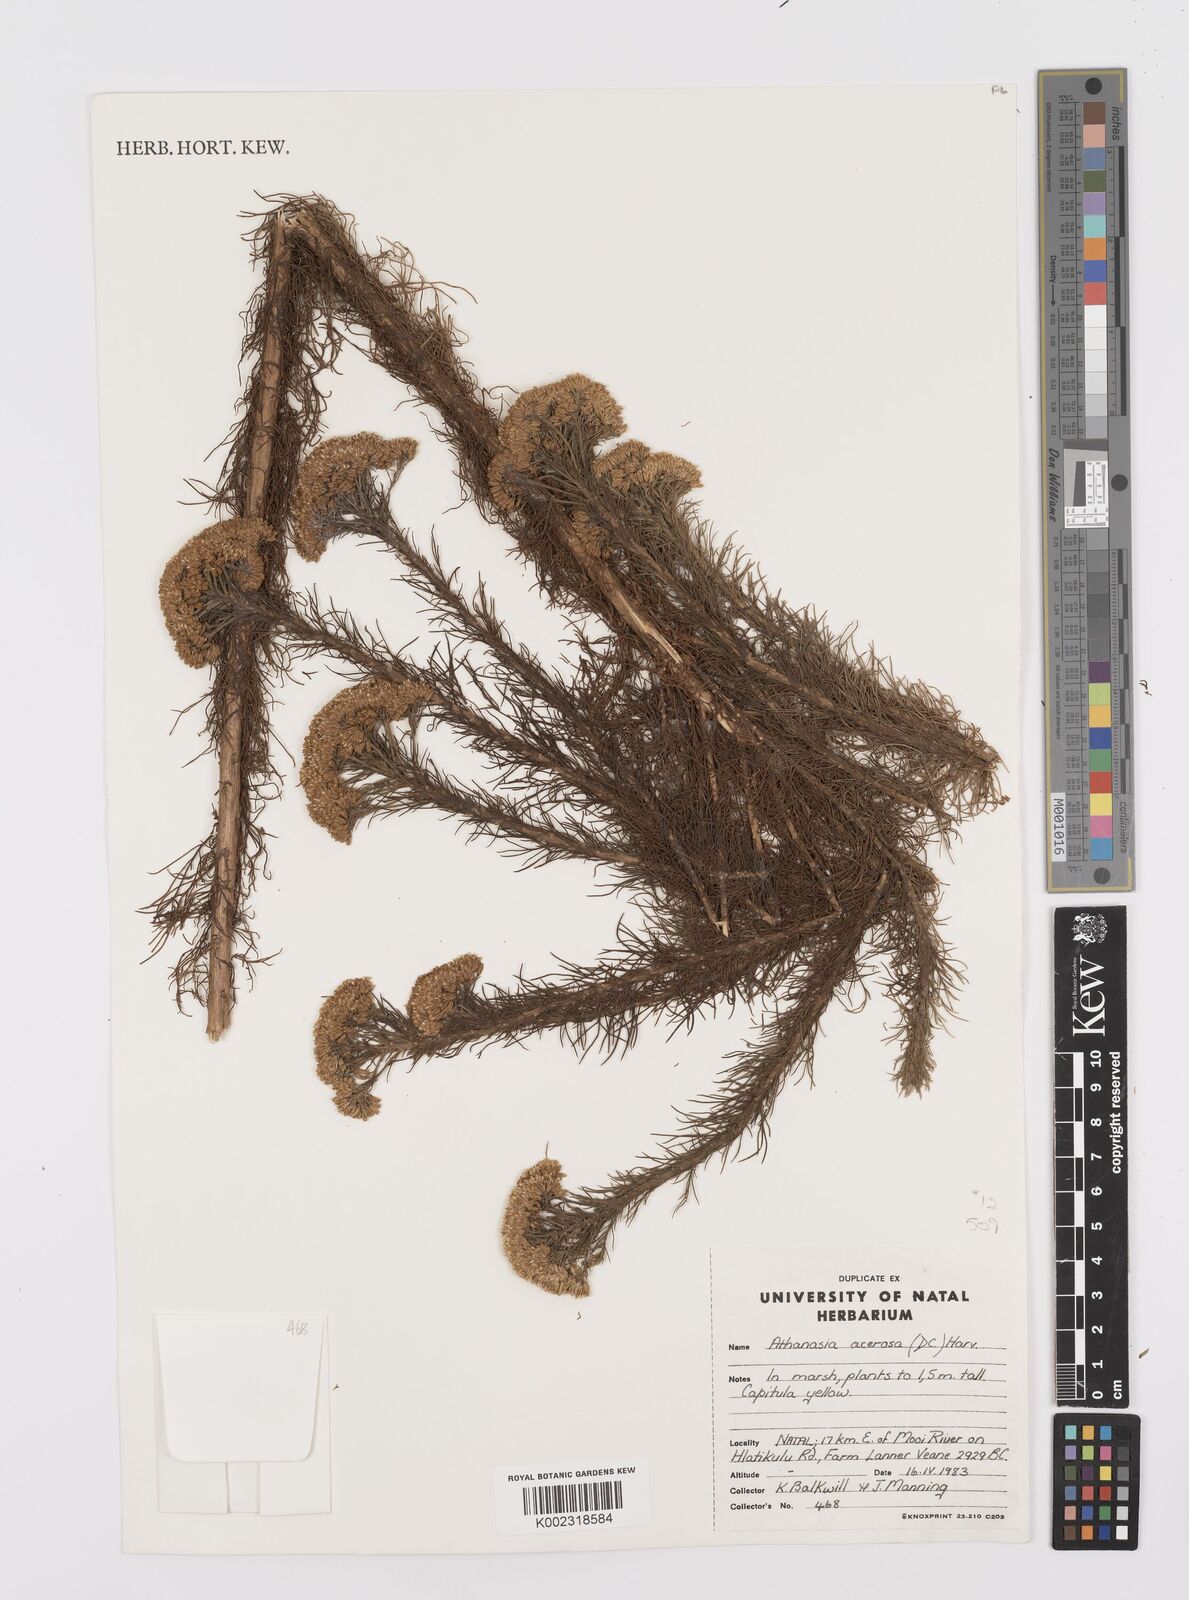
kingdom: Plantae
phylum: Tracheophyta
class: Magnoliopsida
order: Asterales
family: Asteraceae
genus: Phymaspermum
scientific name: Phymaspermum acerosum
